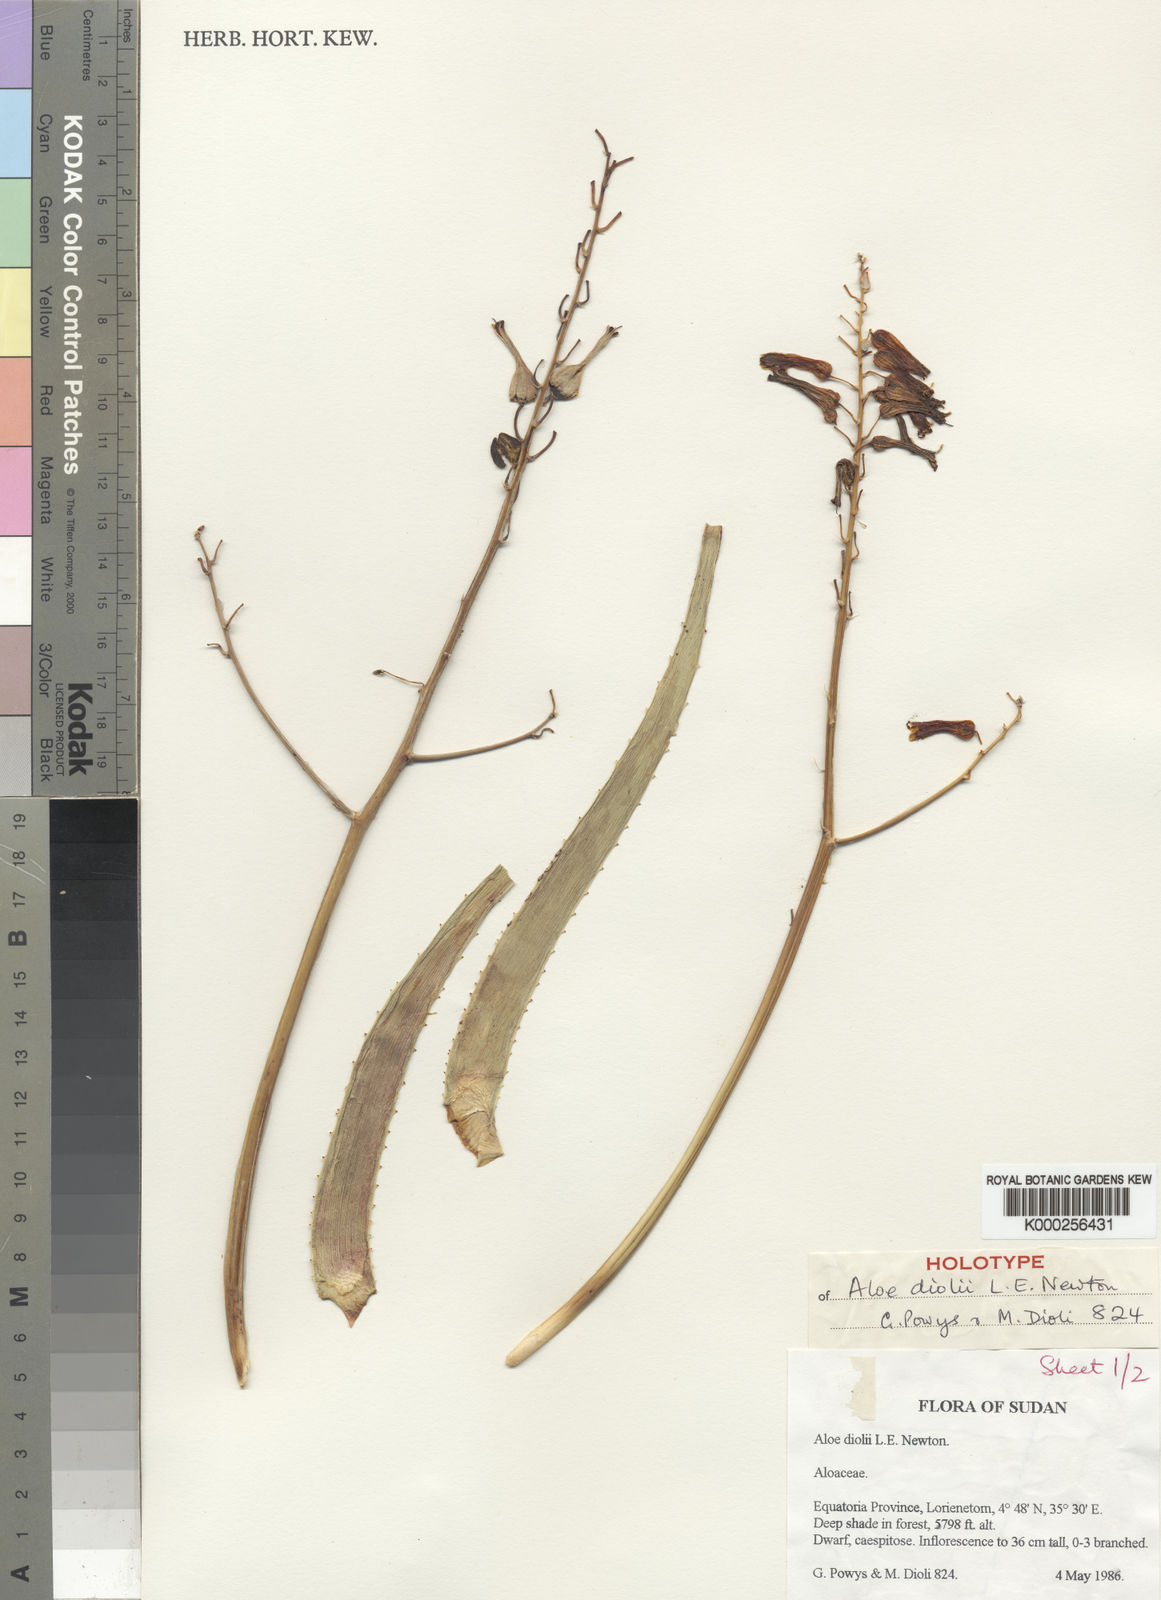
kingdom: Plantae
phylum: Tracheophyta
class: Liliopsida
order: Asparagales
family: Asphodelaceae
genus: Aloe
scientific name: Aloe diolii
